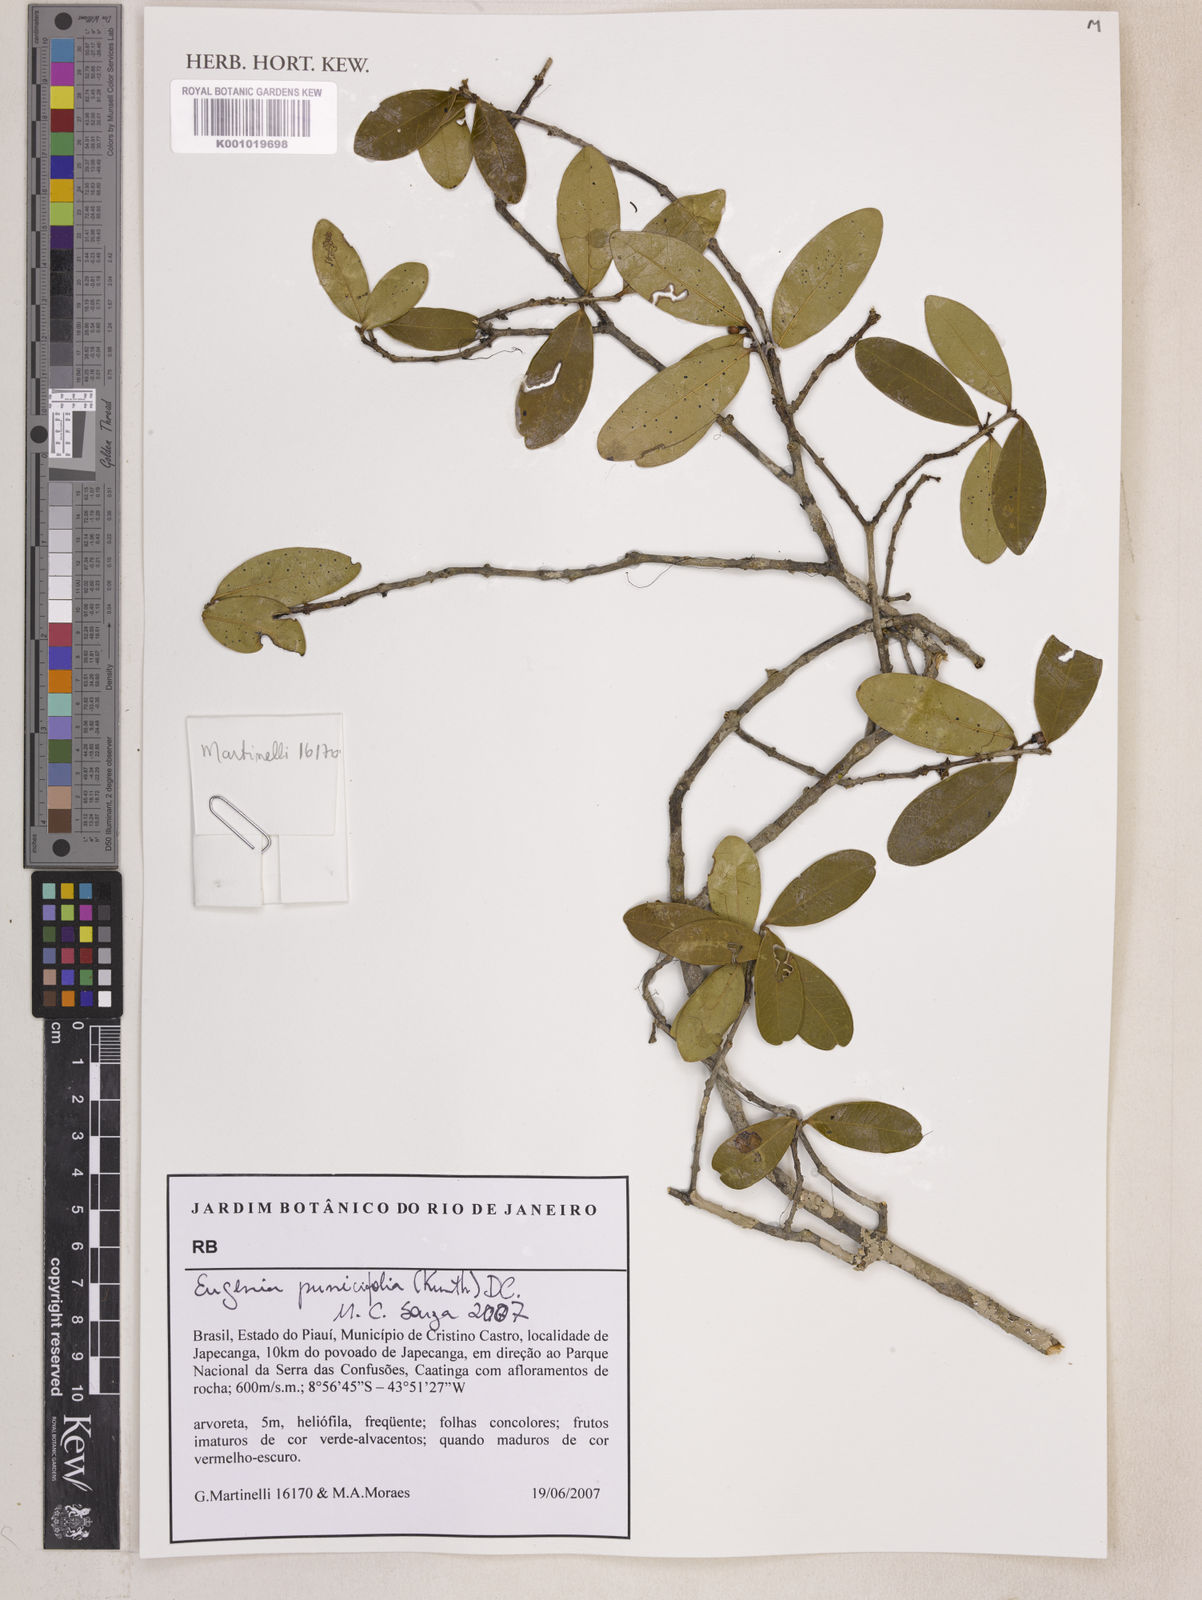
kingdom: Plantae
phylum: Tracheophyta
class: Magnoliopsida
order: Myrtales
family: Myrtaceae
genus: Eugenia
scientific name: Eugenia punicifolia
